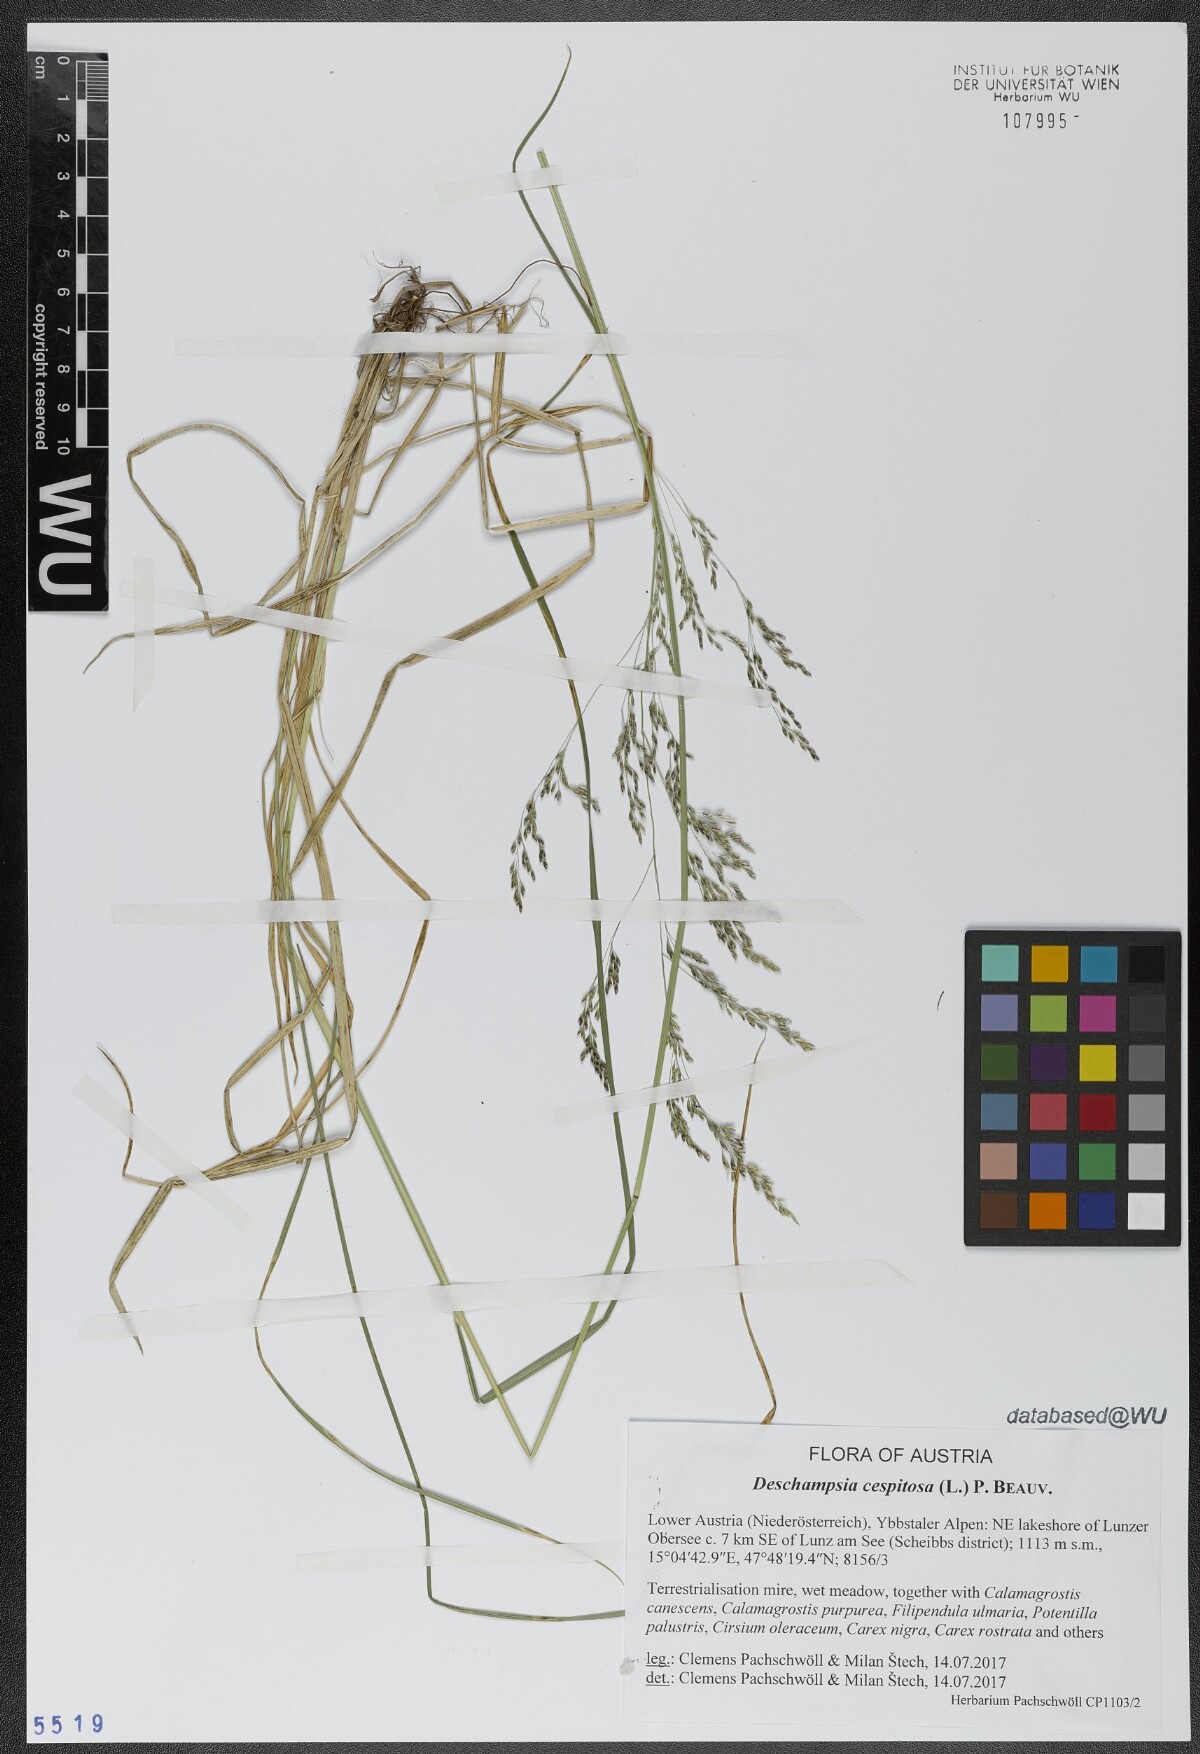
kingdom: Plantae
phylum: Tracheophyta
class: Liliopsida
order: Poales
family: Poaceae
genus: Deschampsia
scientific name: Deschampsia cespitosa
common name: Tufted hair-grass
